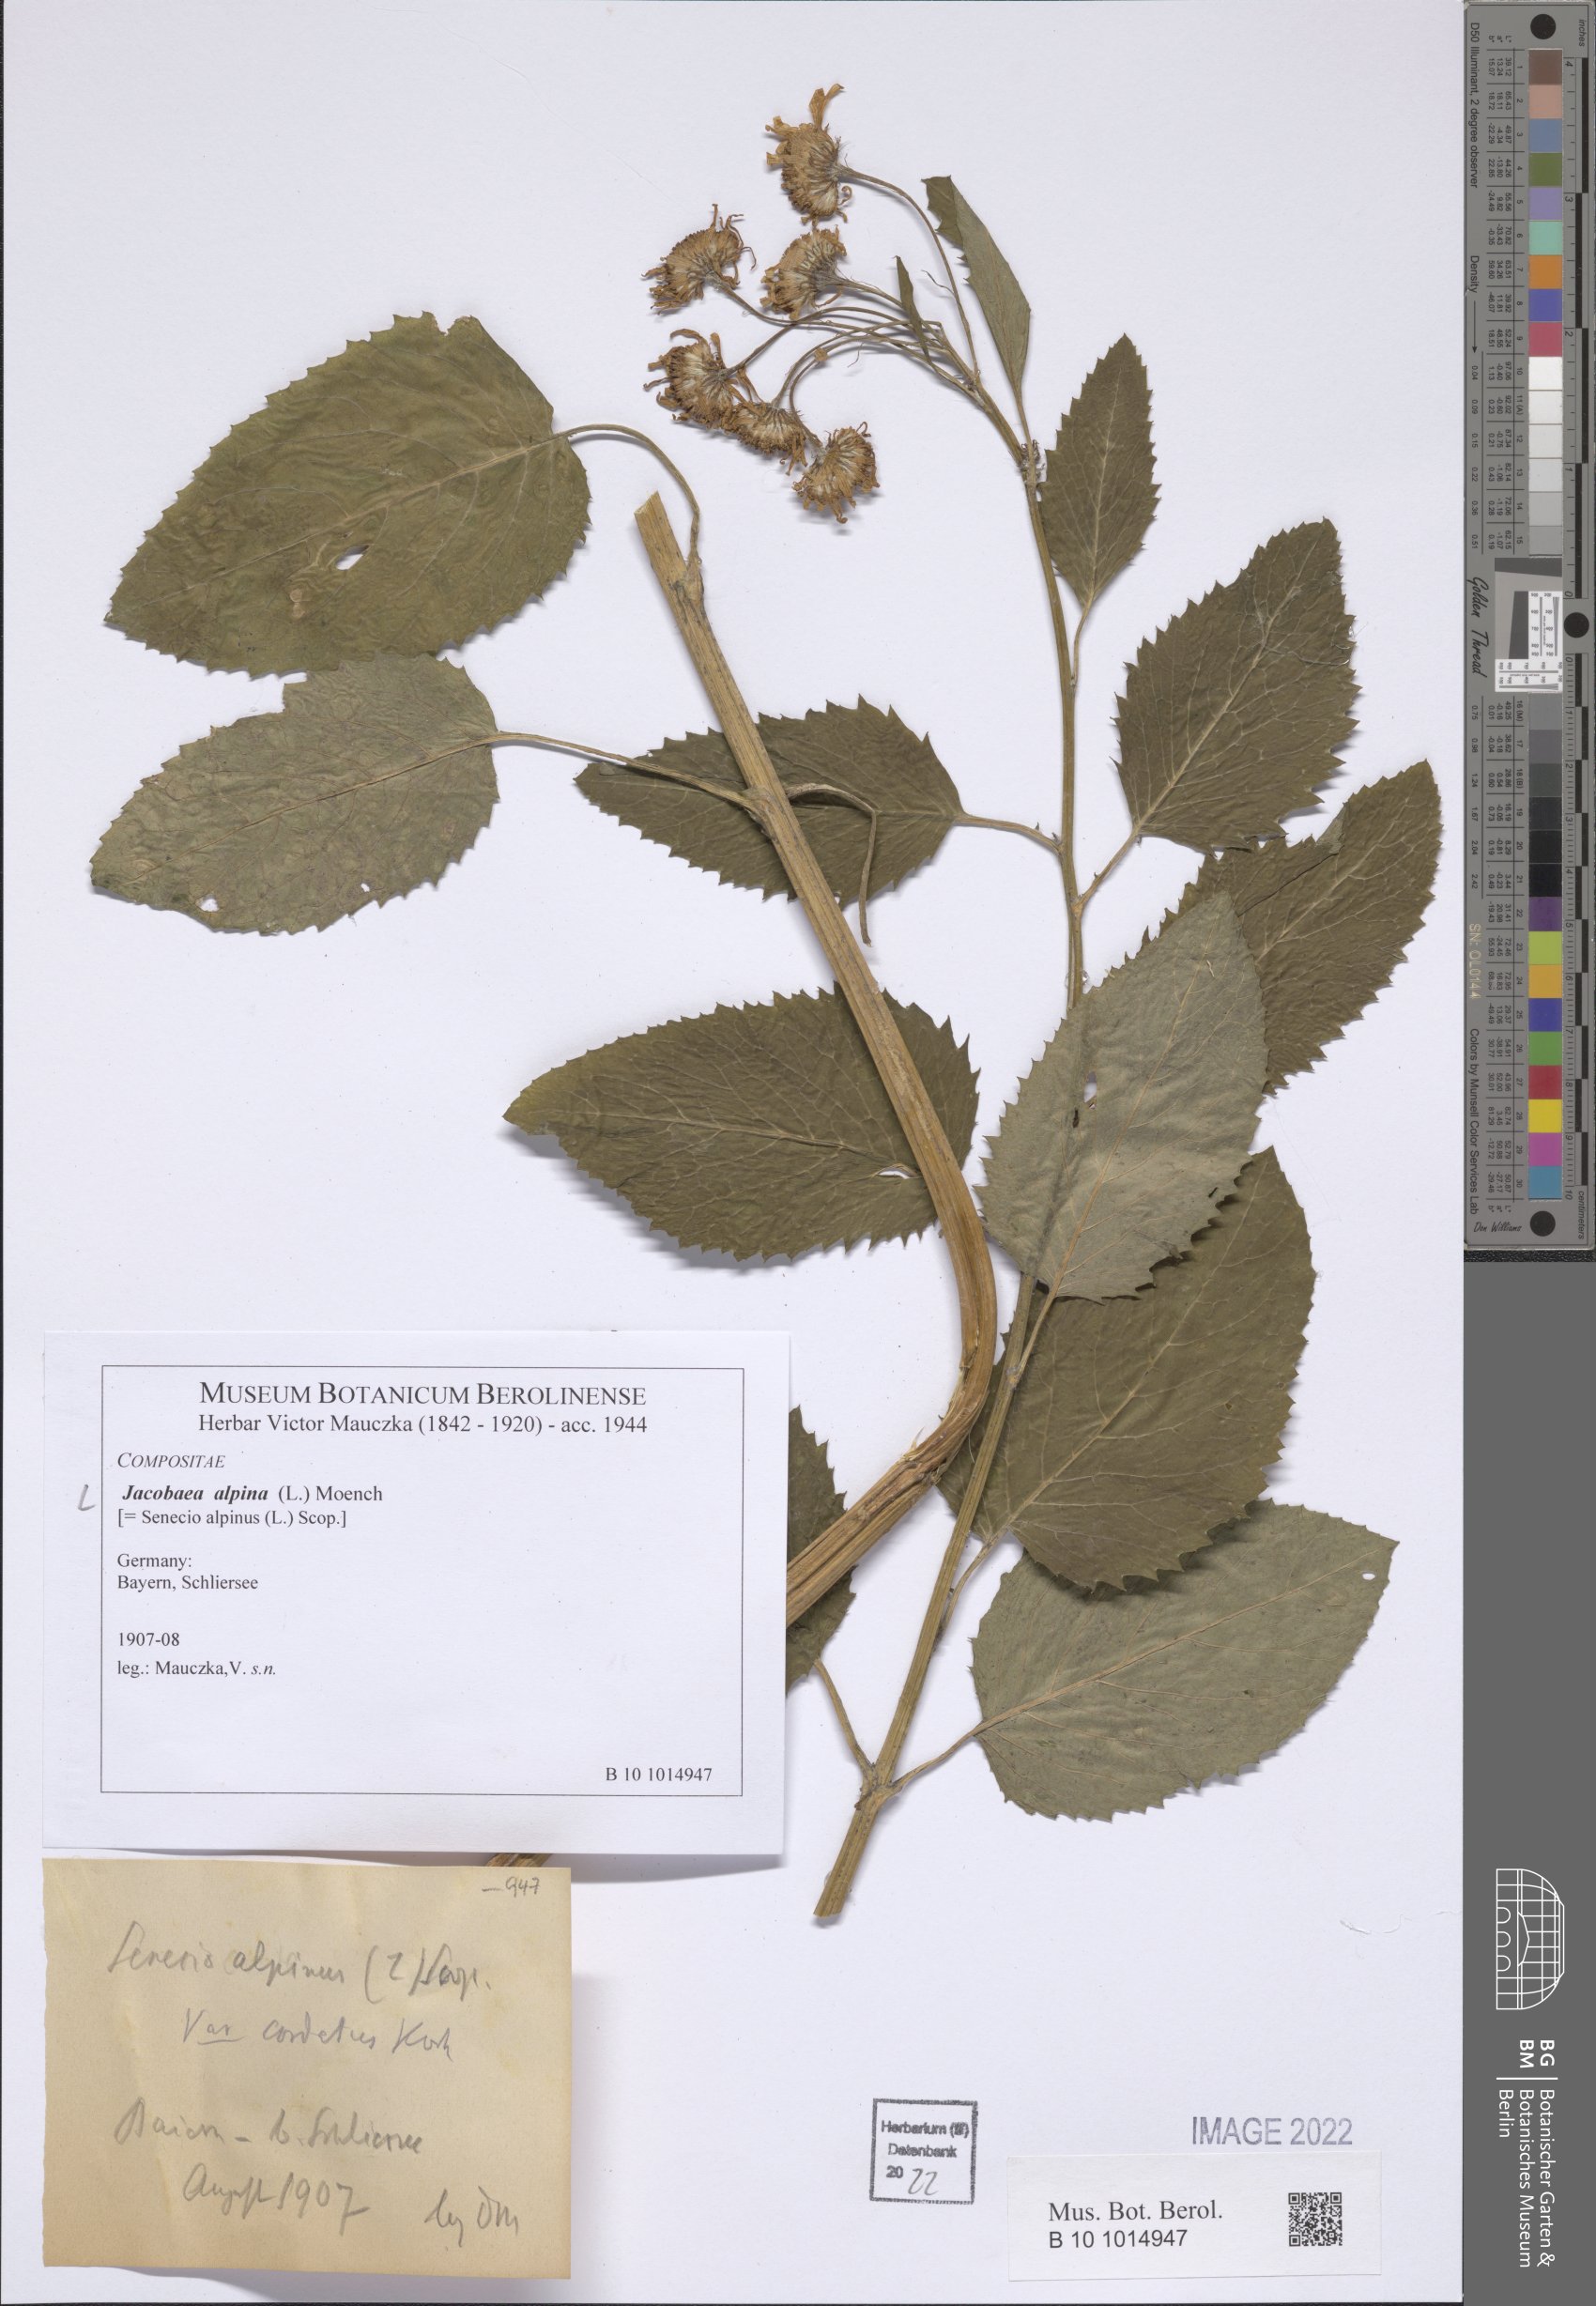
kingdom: Plantae
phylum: Tracheophyta
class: Magnoliopsida
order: Asterales
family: Asteraceae
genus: Jacobaea
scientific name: Jacobaea alpina
